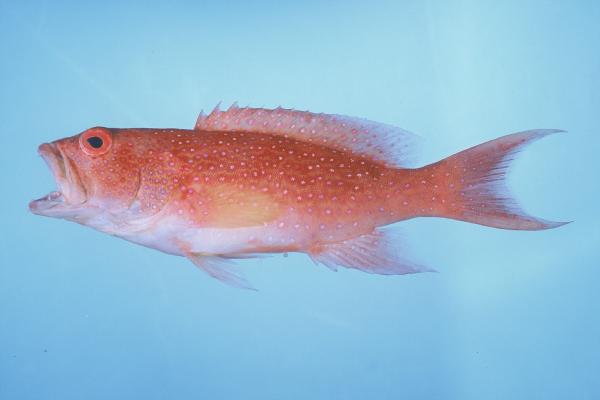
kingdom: Animalia
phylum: Chordata
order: Perciformes
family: Serranidae
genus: Variola
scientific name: Variola albimarginata
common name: Lunar-tailed grouper
